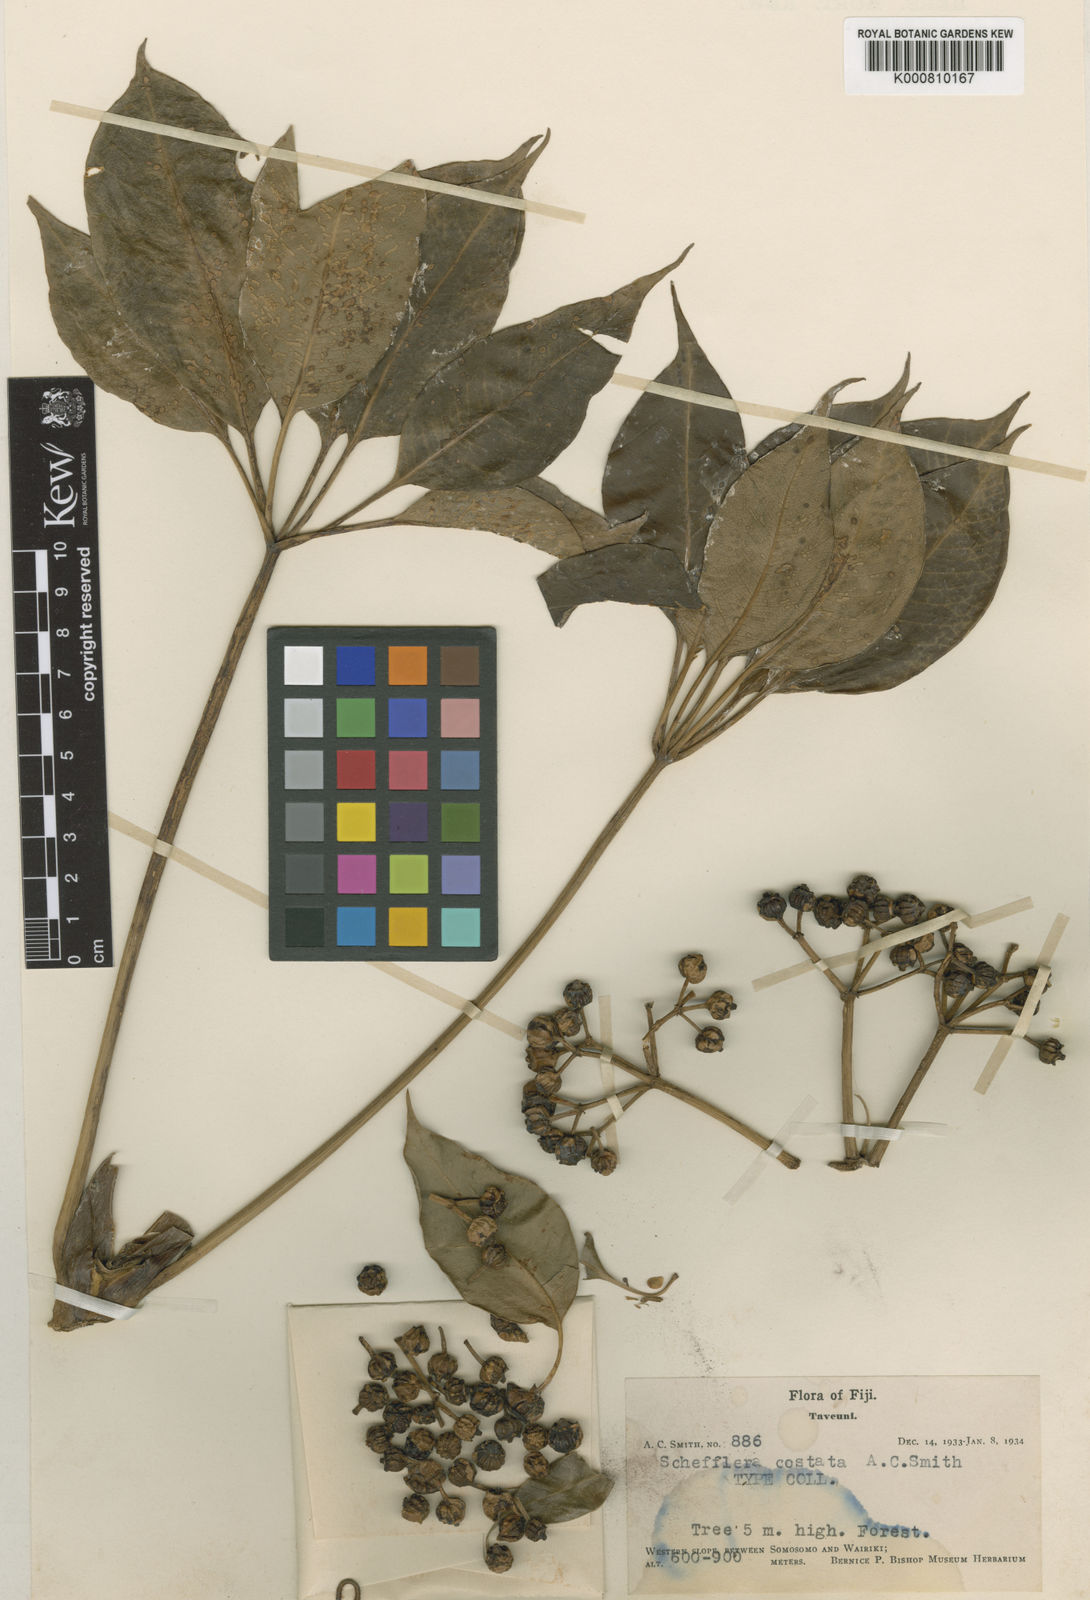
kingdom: Plantae
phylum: Tracheophyta
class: Magnoliopsida
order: Apiales
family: Araliaceae
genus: Plerandra
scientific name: Plerandra costata
